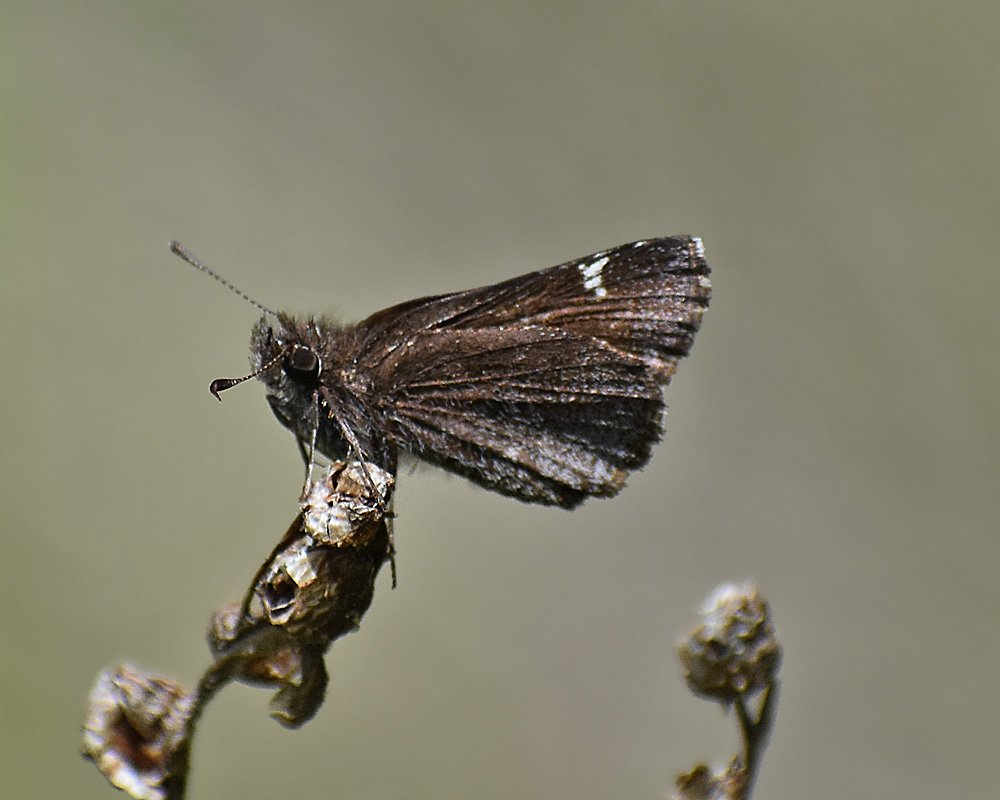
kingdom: Animalia
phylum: Arthropoda
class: Insecta
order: Lepidoptera
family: Hesperiidae
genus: Mastor
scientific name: Mastor vialis
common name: Common Roadside-Skipper
